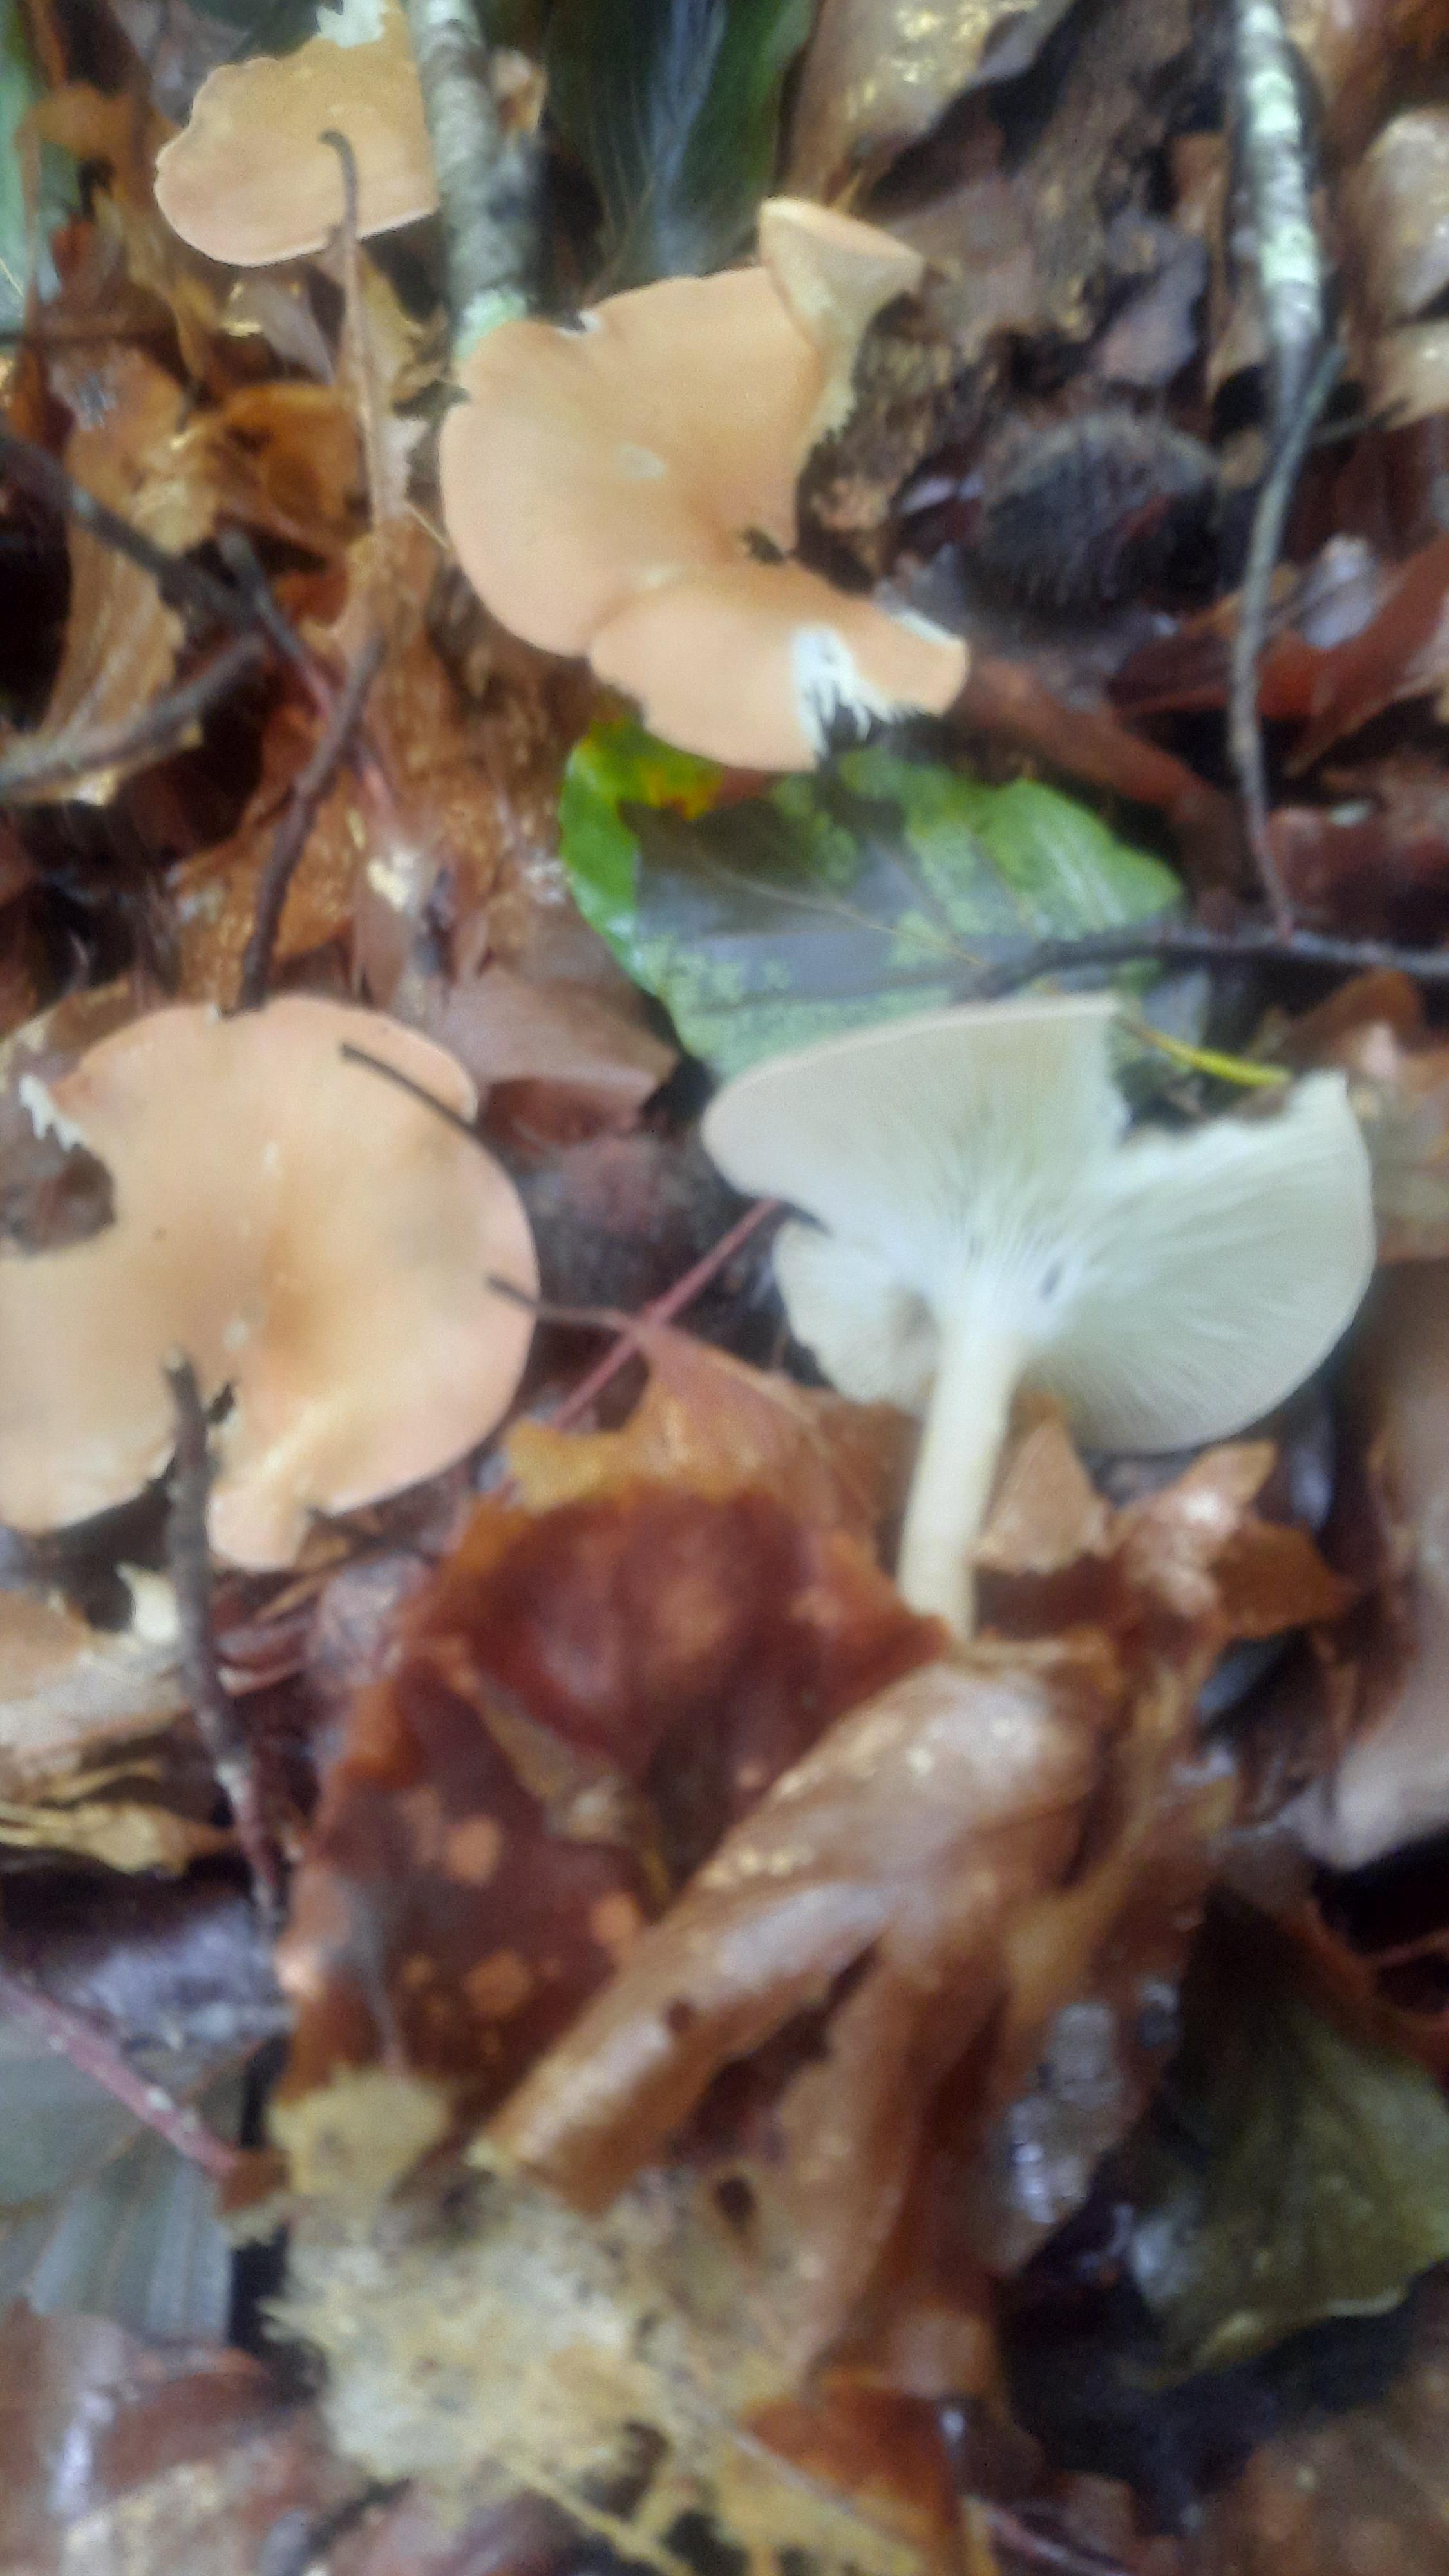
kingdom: Fungi
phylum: Basidiomycota
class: Agaricomycetes
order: Agaricales
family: Tricholomataceae
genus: Infundibulicybe
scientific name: Infundibulicybe gibba
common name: almindelig tragthat
